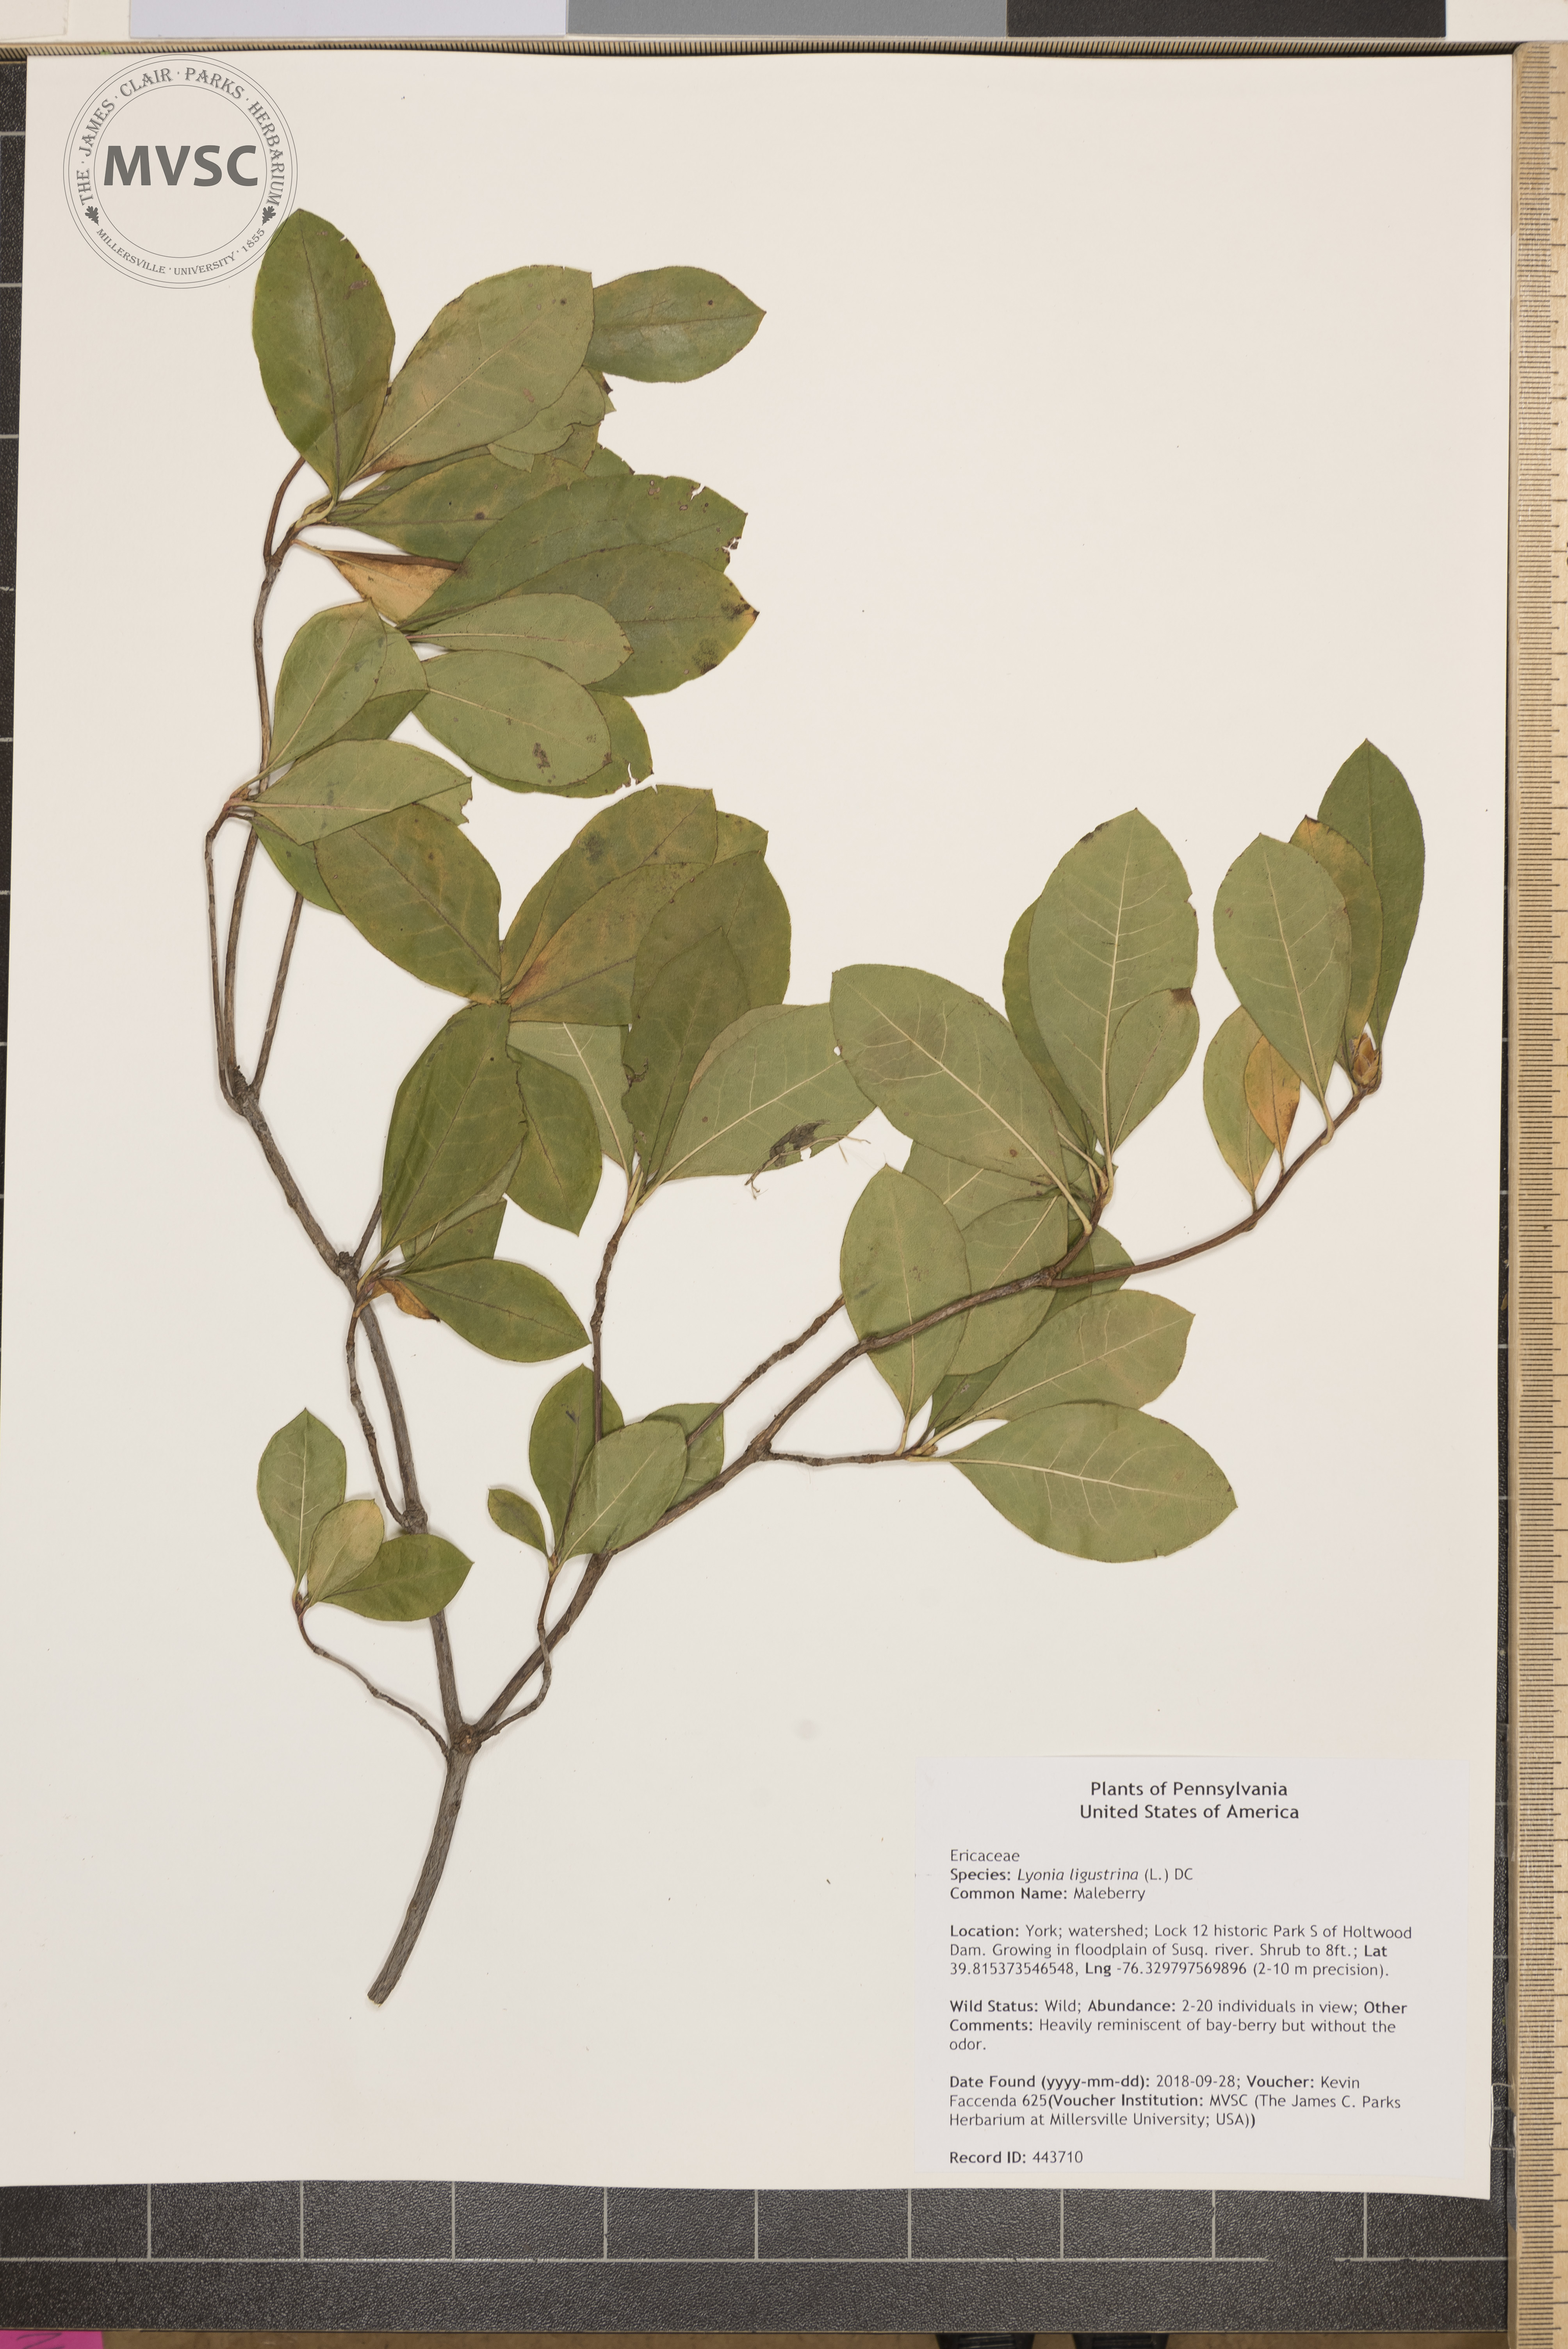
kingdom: Plantae
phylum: Tracheophyta
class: Magnoliopsida
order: Ericales
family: Ericaceae
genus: Lyonia
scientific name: Lyonia ligustrina
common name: Maleberry
